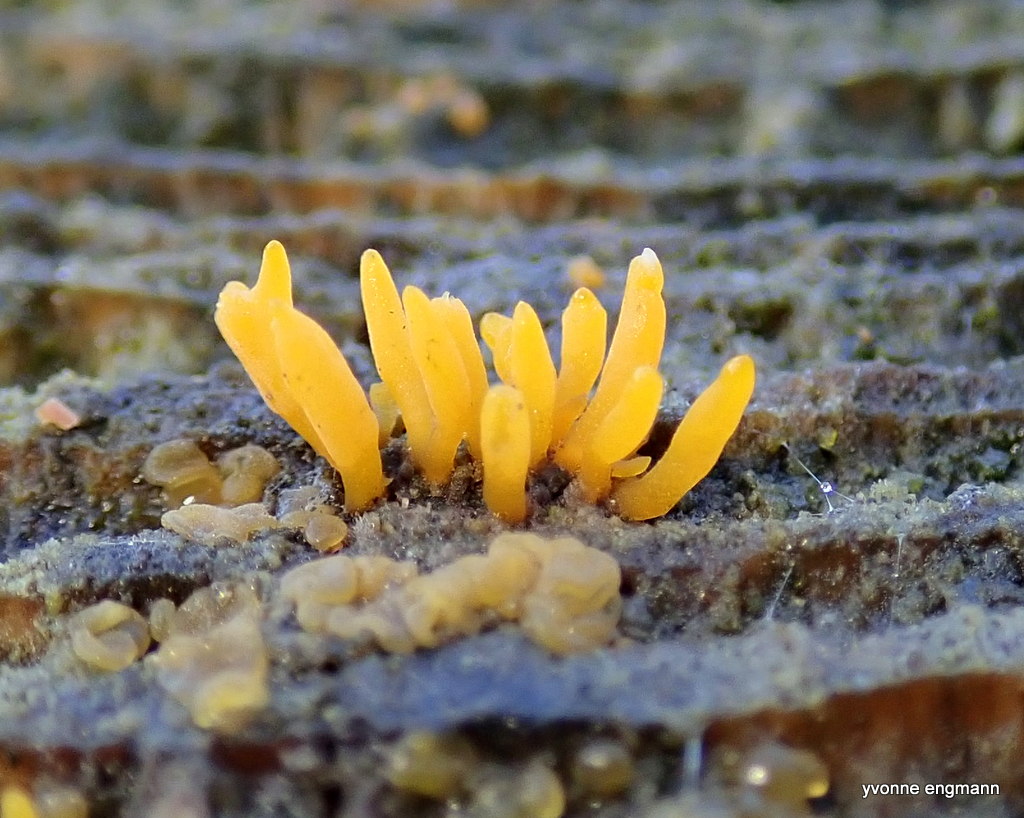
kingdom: Fungi
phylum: Basidiomycota
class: Dacrymycetes
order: Dacrymycetales
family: Dacrymycetaceae
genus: Calocera
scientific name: Calocera cornea
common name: liden guldgaffel
